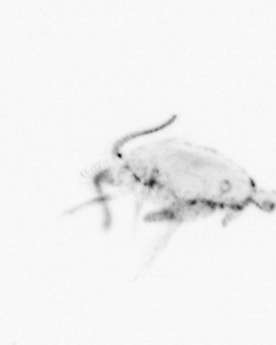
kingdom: Animalia
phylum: Arthropoda
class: Copepoda
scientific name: Copepoda
